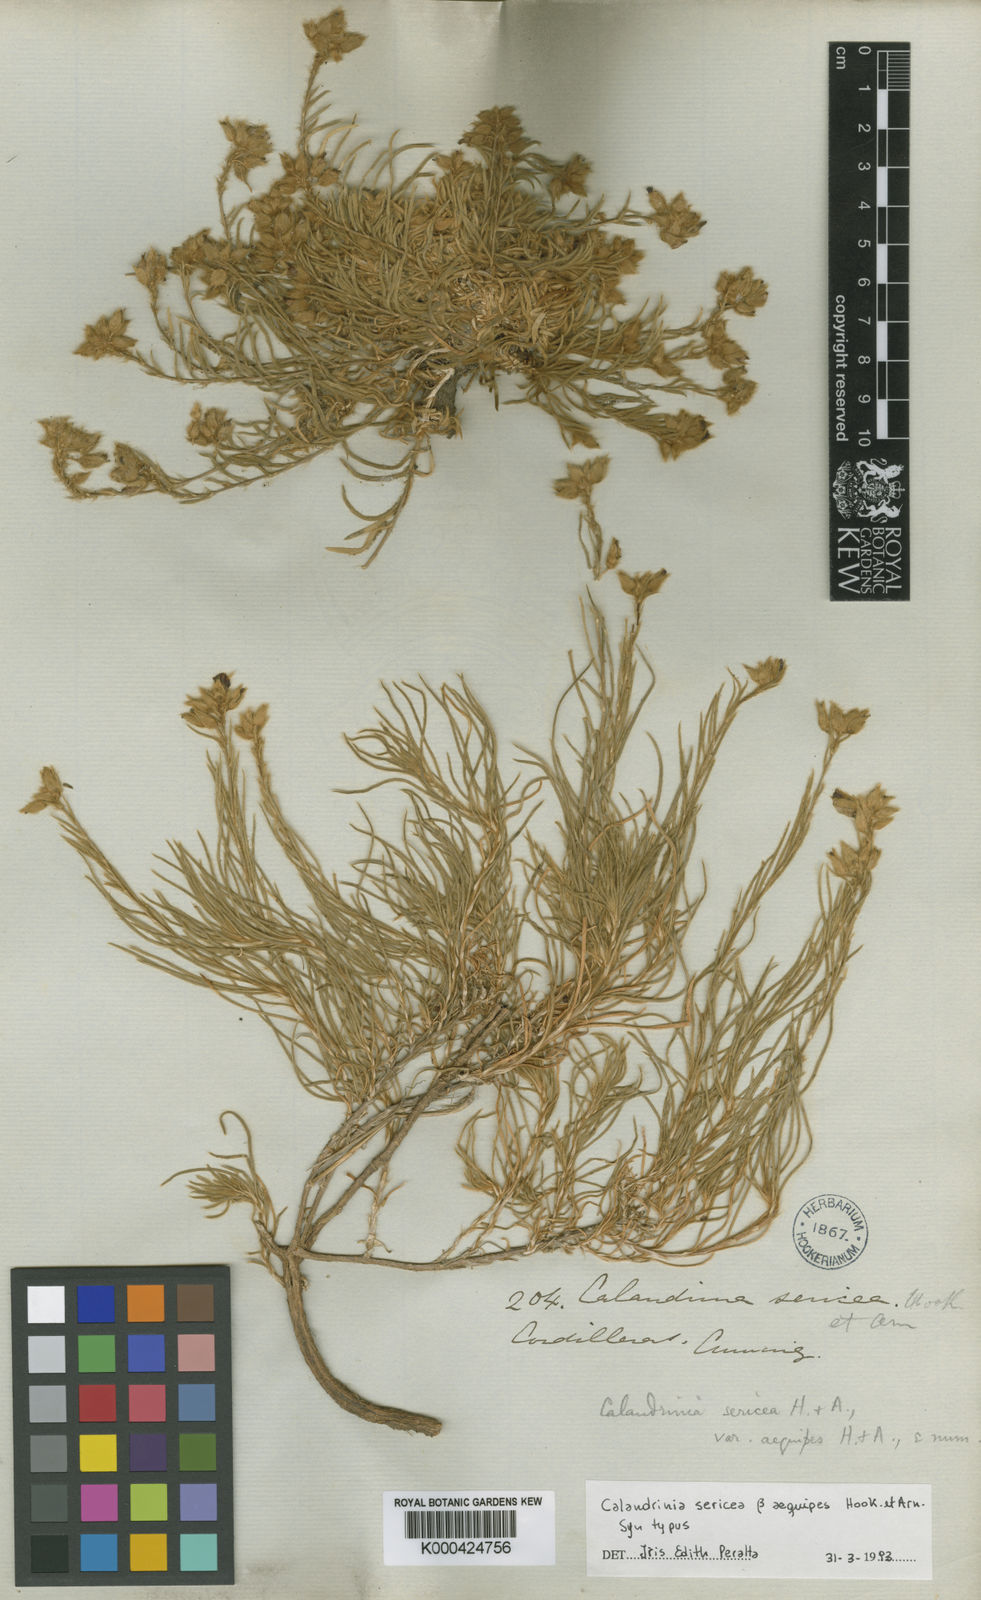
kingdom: Plantae
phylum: Tracheophyta
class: Magnoliopsida
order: Caryophyllales
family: Montiaceae
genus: Montiopsis
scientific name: Montiopsis
